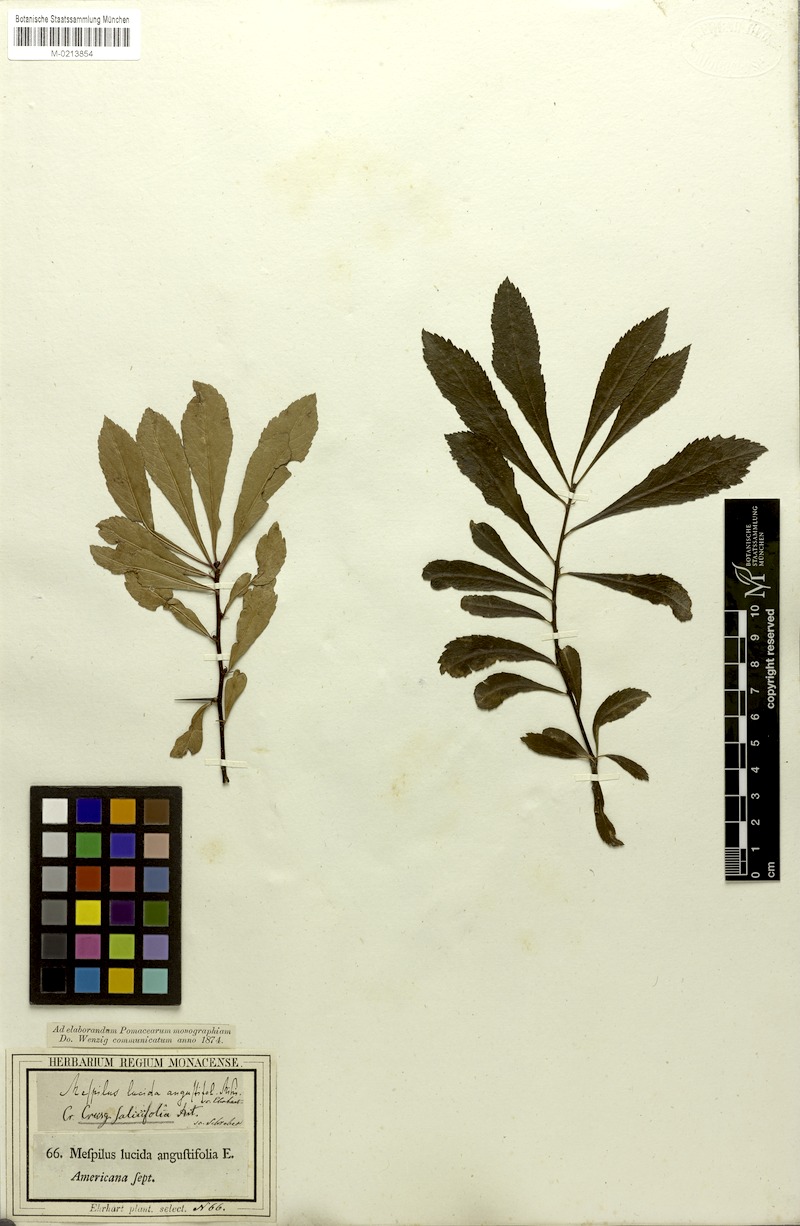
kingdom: Plantae
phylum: Tracheophyta
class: Magnoliopsida
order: Rosales
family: Rosaceae
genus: Crataegus
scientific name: Crataegus crus-galli
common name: Cockspurthorn
